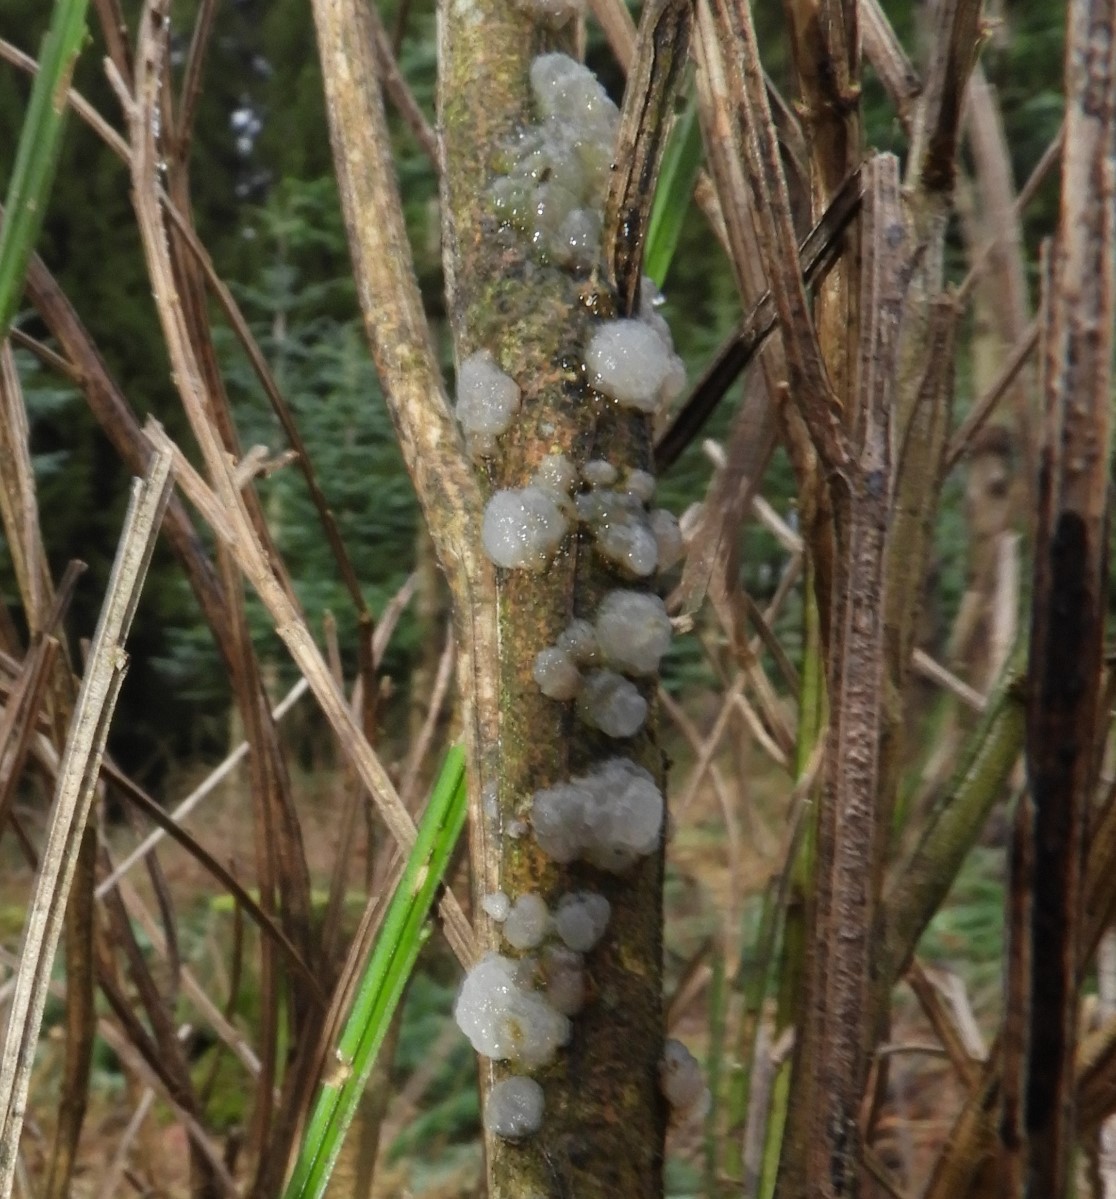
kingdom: Fungi
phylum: Basidiomycota
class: Agaricomycetes
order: Auriculariales
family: Hyaloriaceae
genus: Myxarium
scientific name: Myxarium nucleatum
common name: klar bævretop
